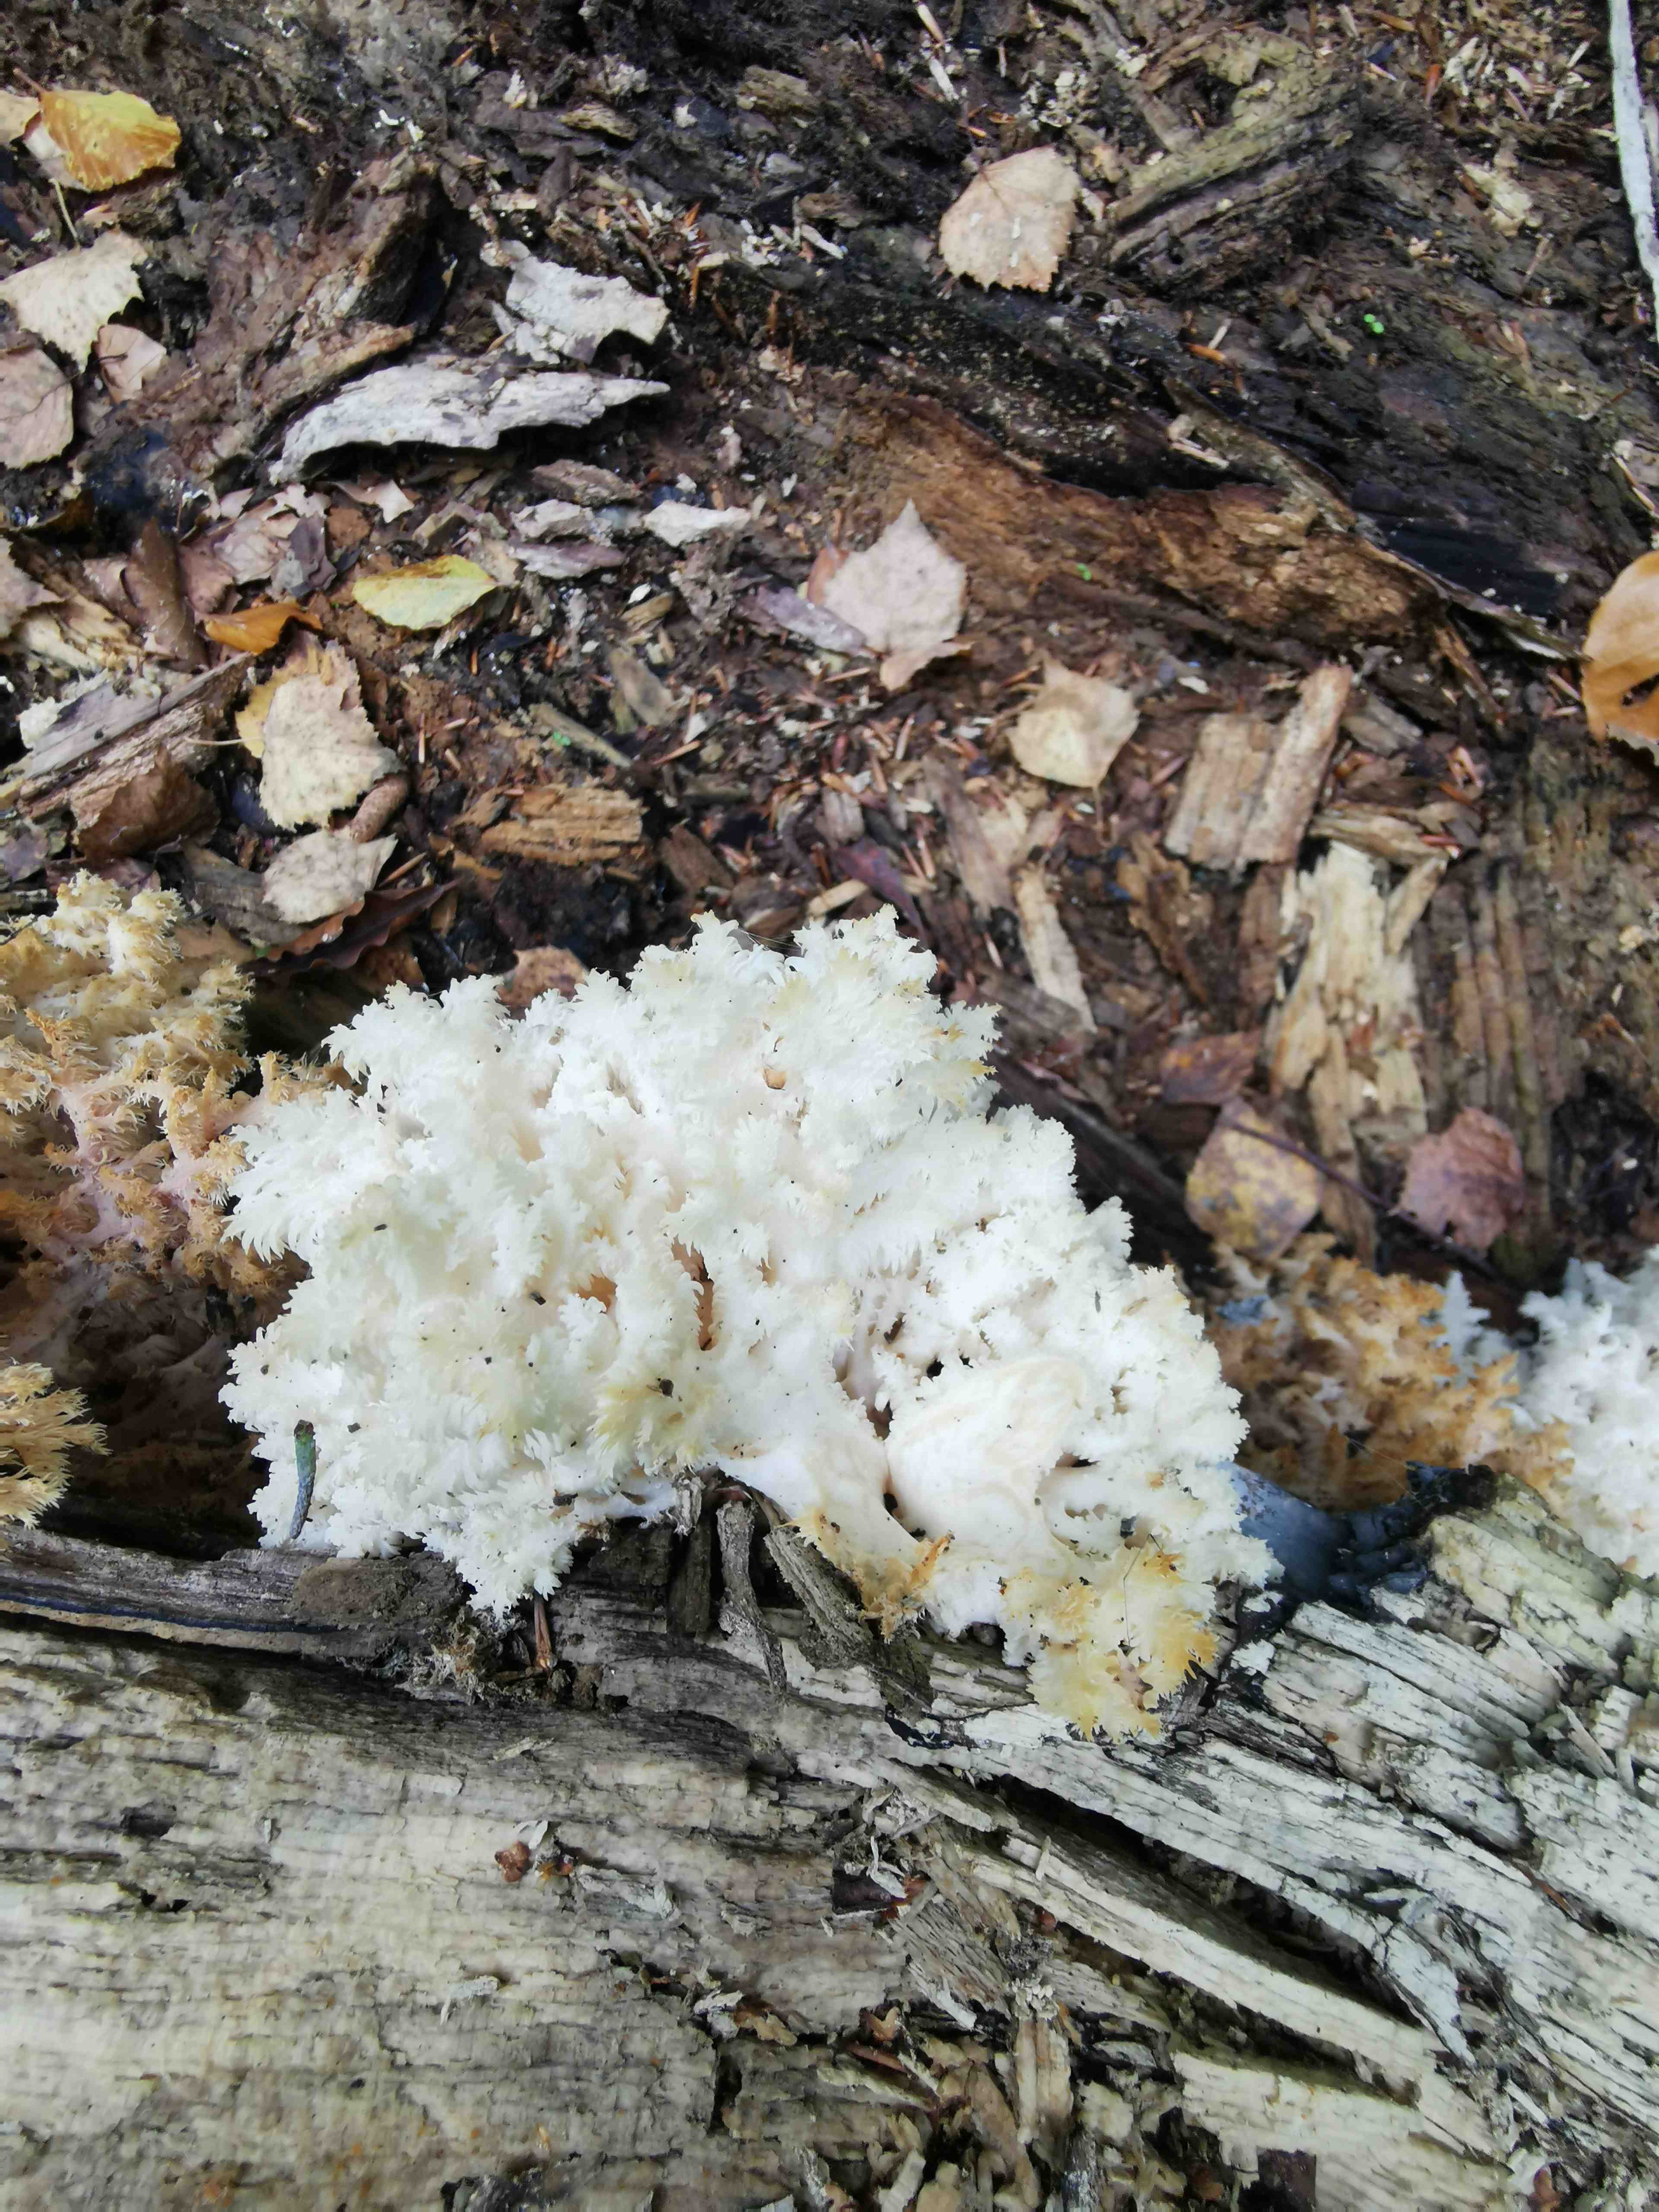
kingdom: Fungi
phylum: Basidiomycota
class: Agaricomycetes
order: Russulales
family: Hericiaceae
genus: Hericium
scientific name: Hericium coralloides
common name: koralpigsvamp
